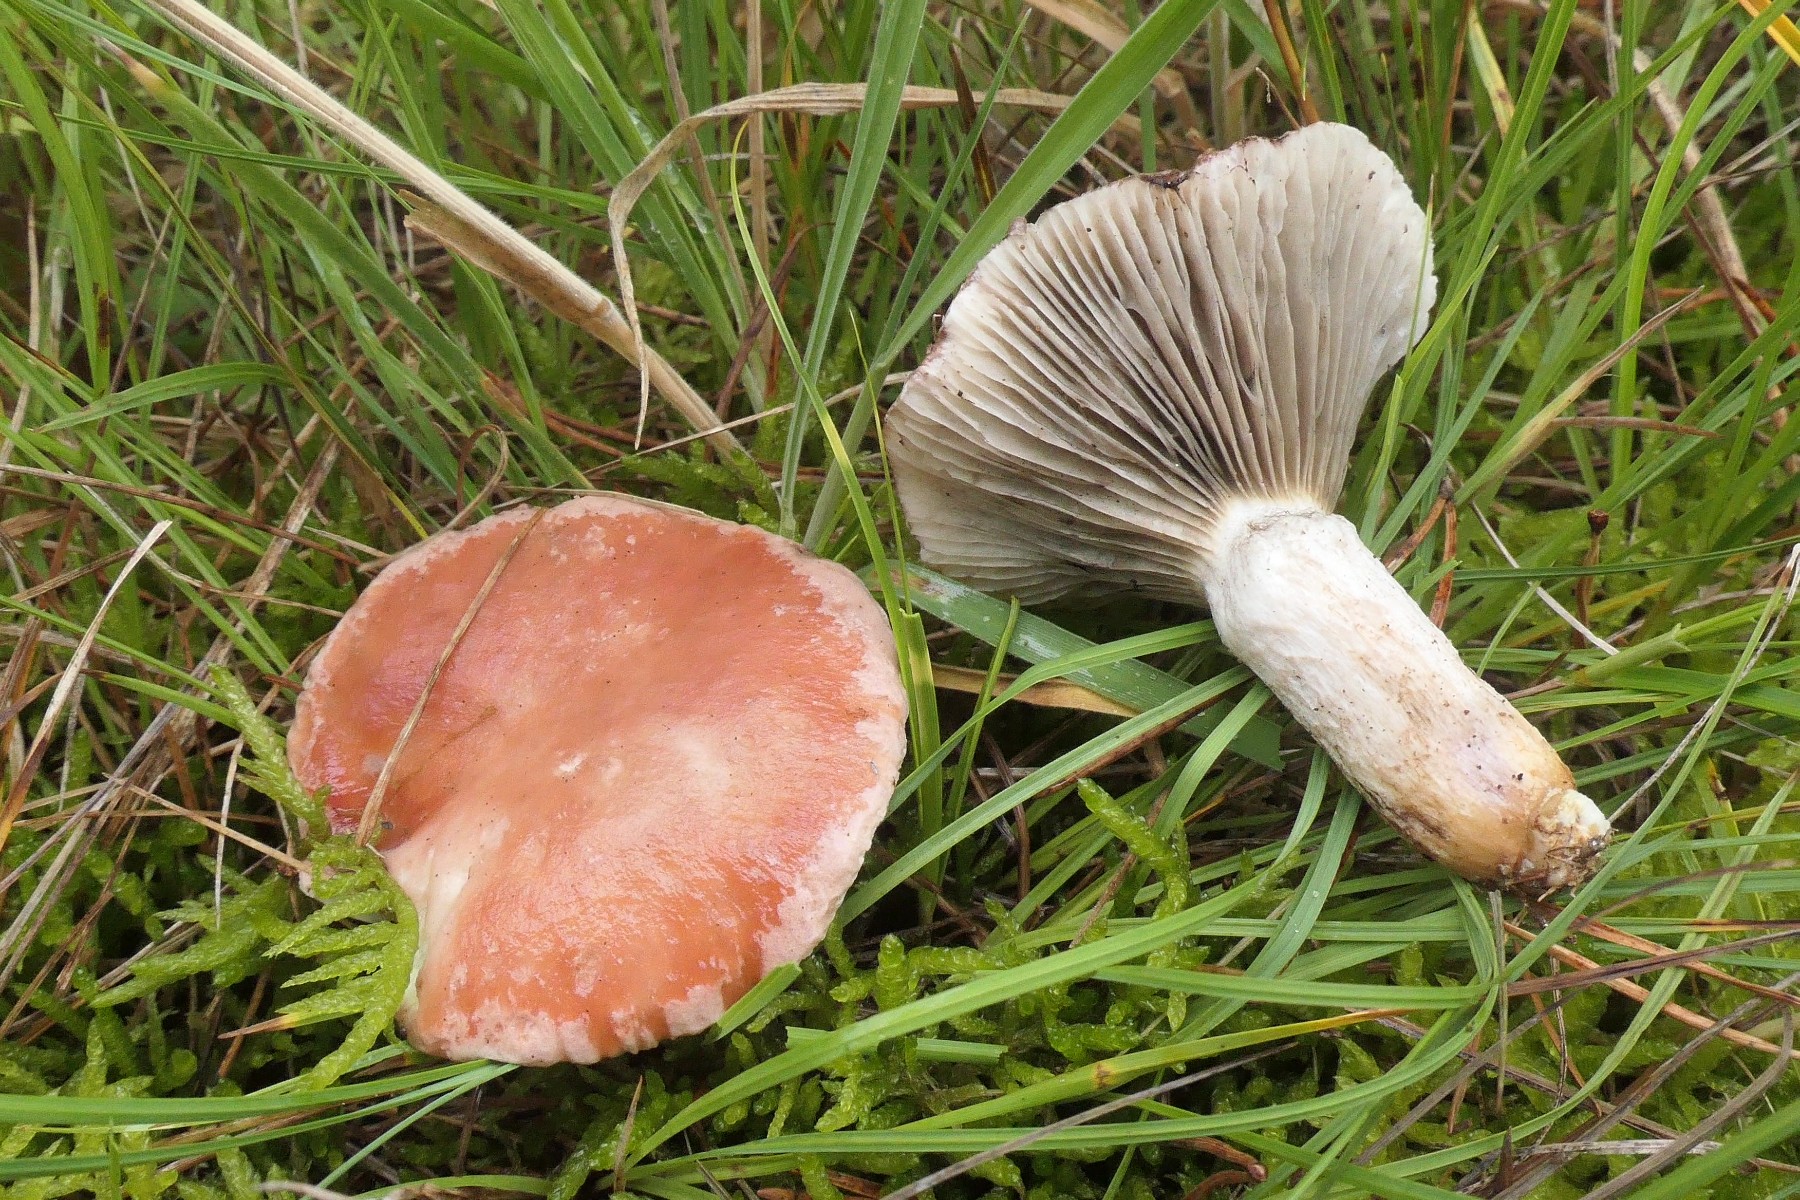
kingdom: Fungi
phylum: Basidiomycota
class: Agaricomycetes
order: Boletales
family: Gomphidiaceae
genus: Gomphidius
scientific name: Gomphidius roseus
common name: rosenrød slimslør
